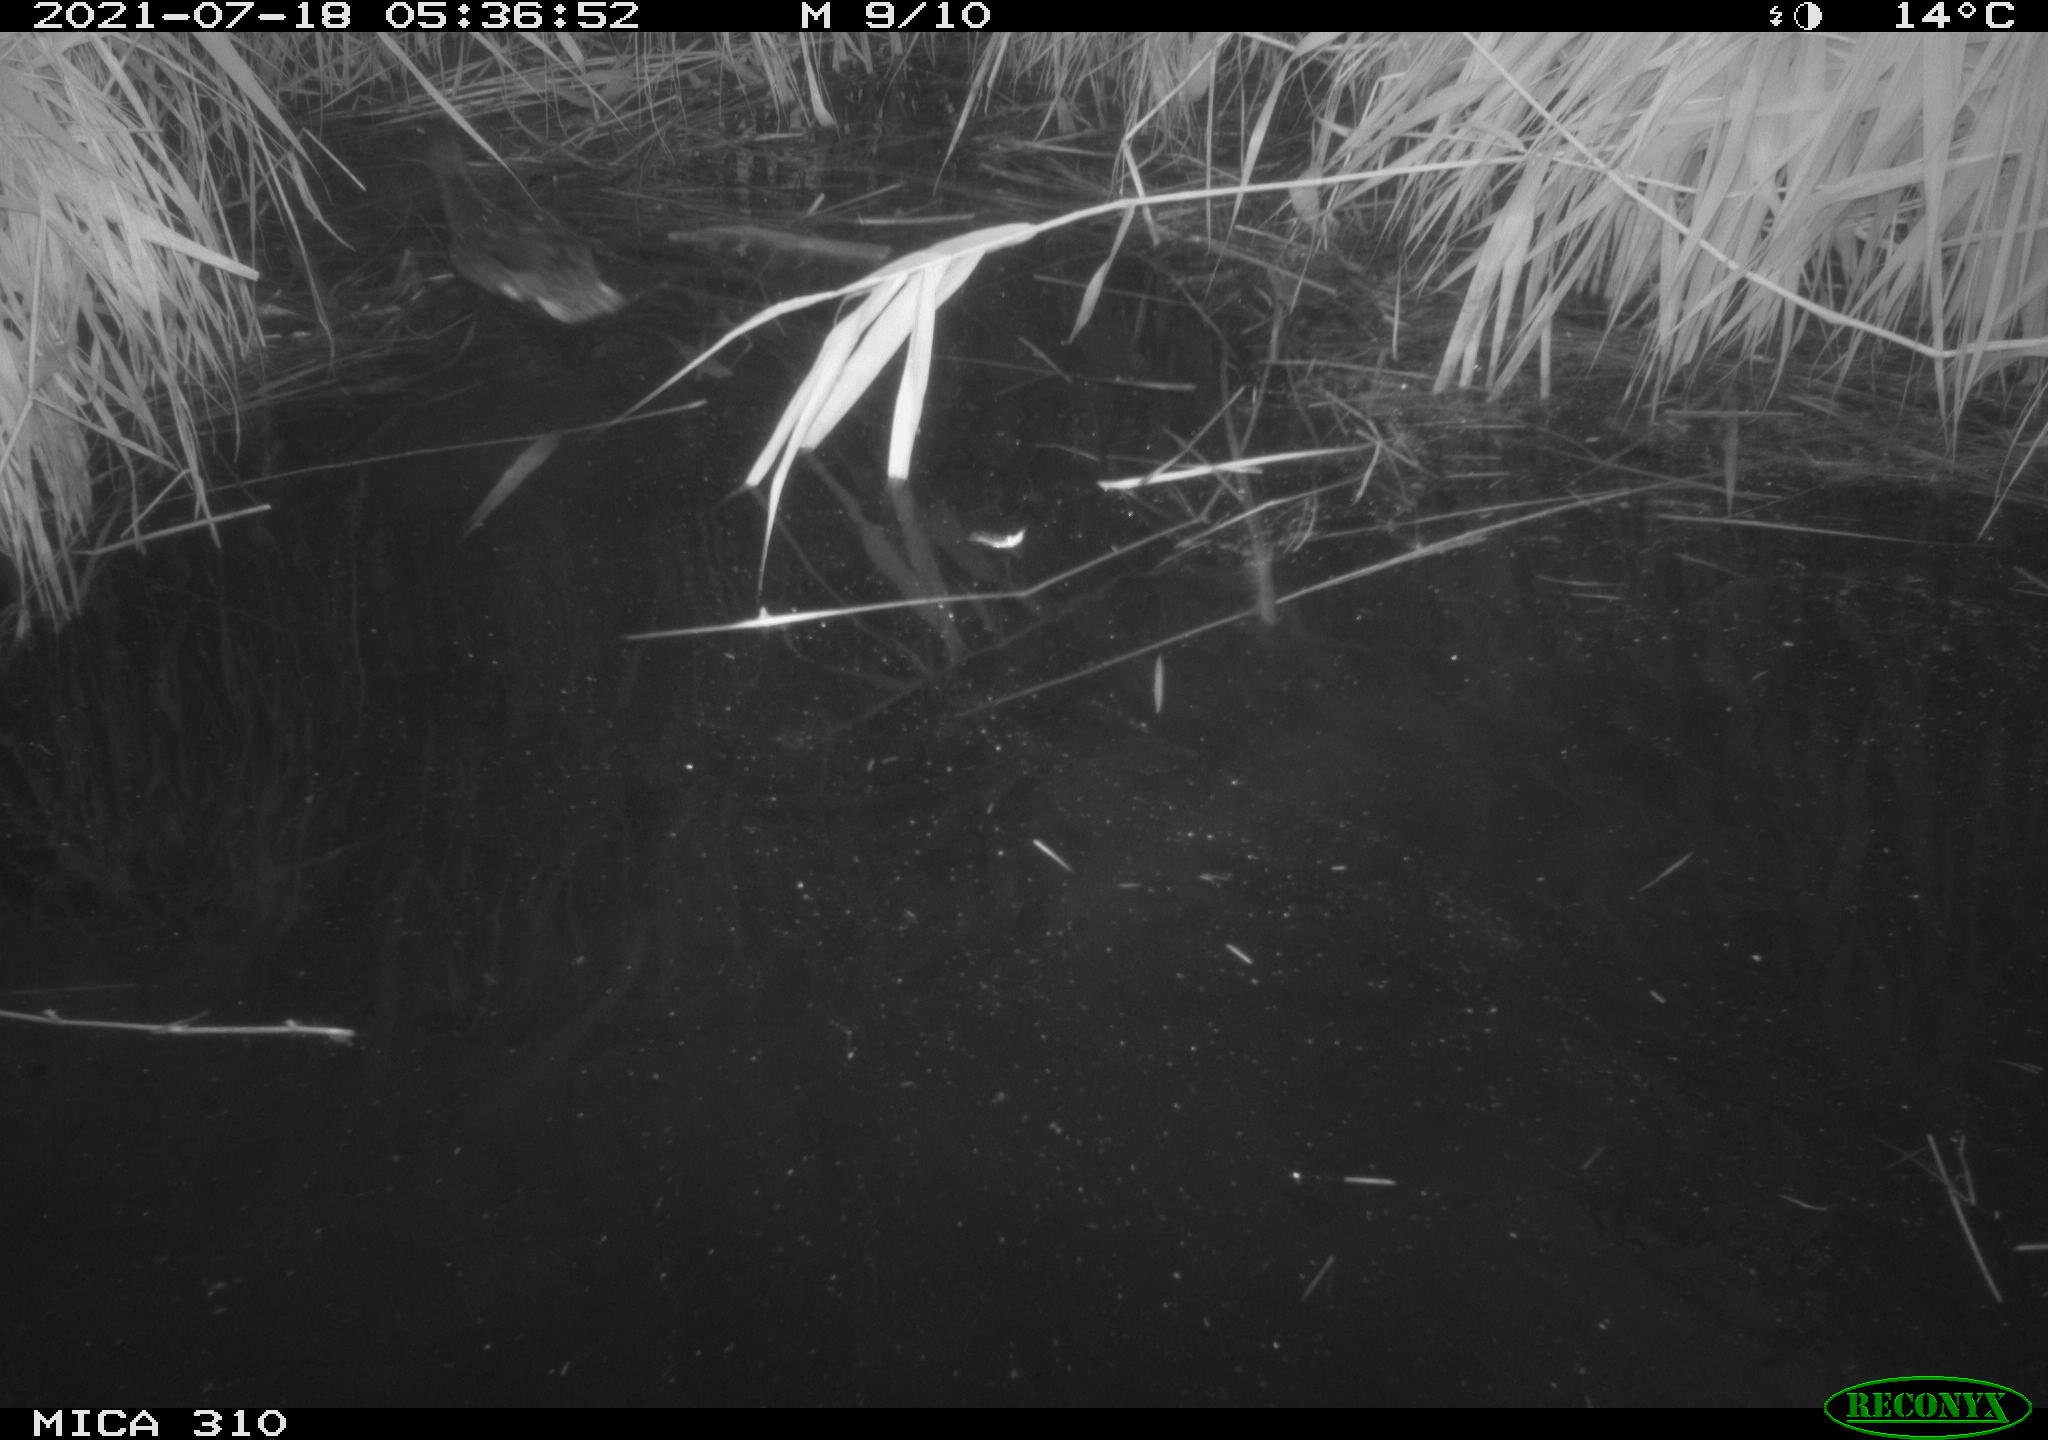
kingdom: Animalia
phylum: Chordata
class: Aves
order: Anseriformes
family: Anatidae
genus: Anas
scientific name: Anas platyrhynchos
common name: Mallard
